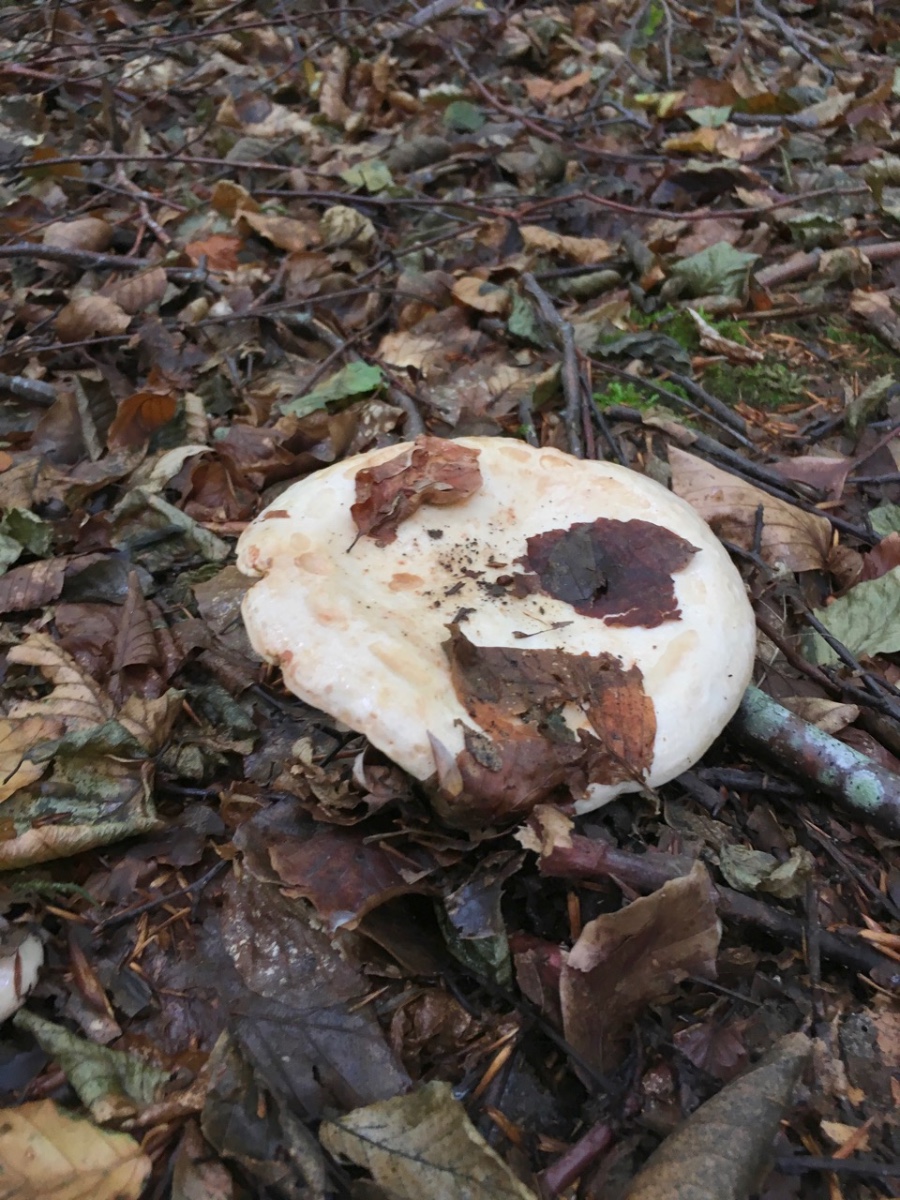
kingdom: Fungi
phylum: Basidiomycota
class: Agaricomycetes
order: Russulales
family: Russulaceae
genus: Lactarius
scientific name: Lactarius pallidus
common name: bleg mælkehat
